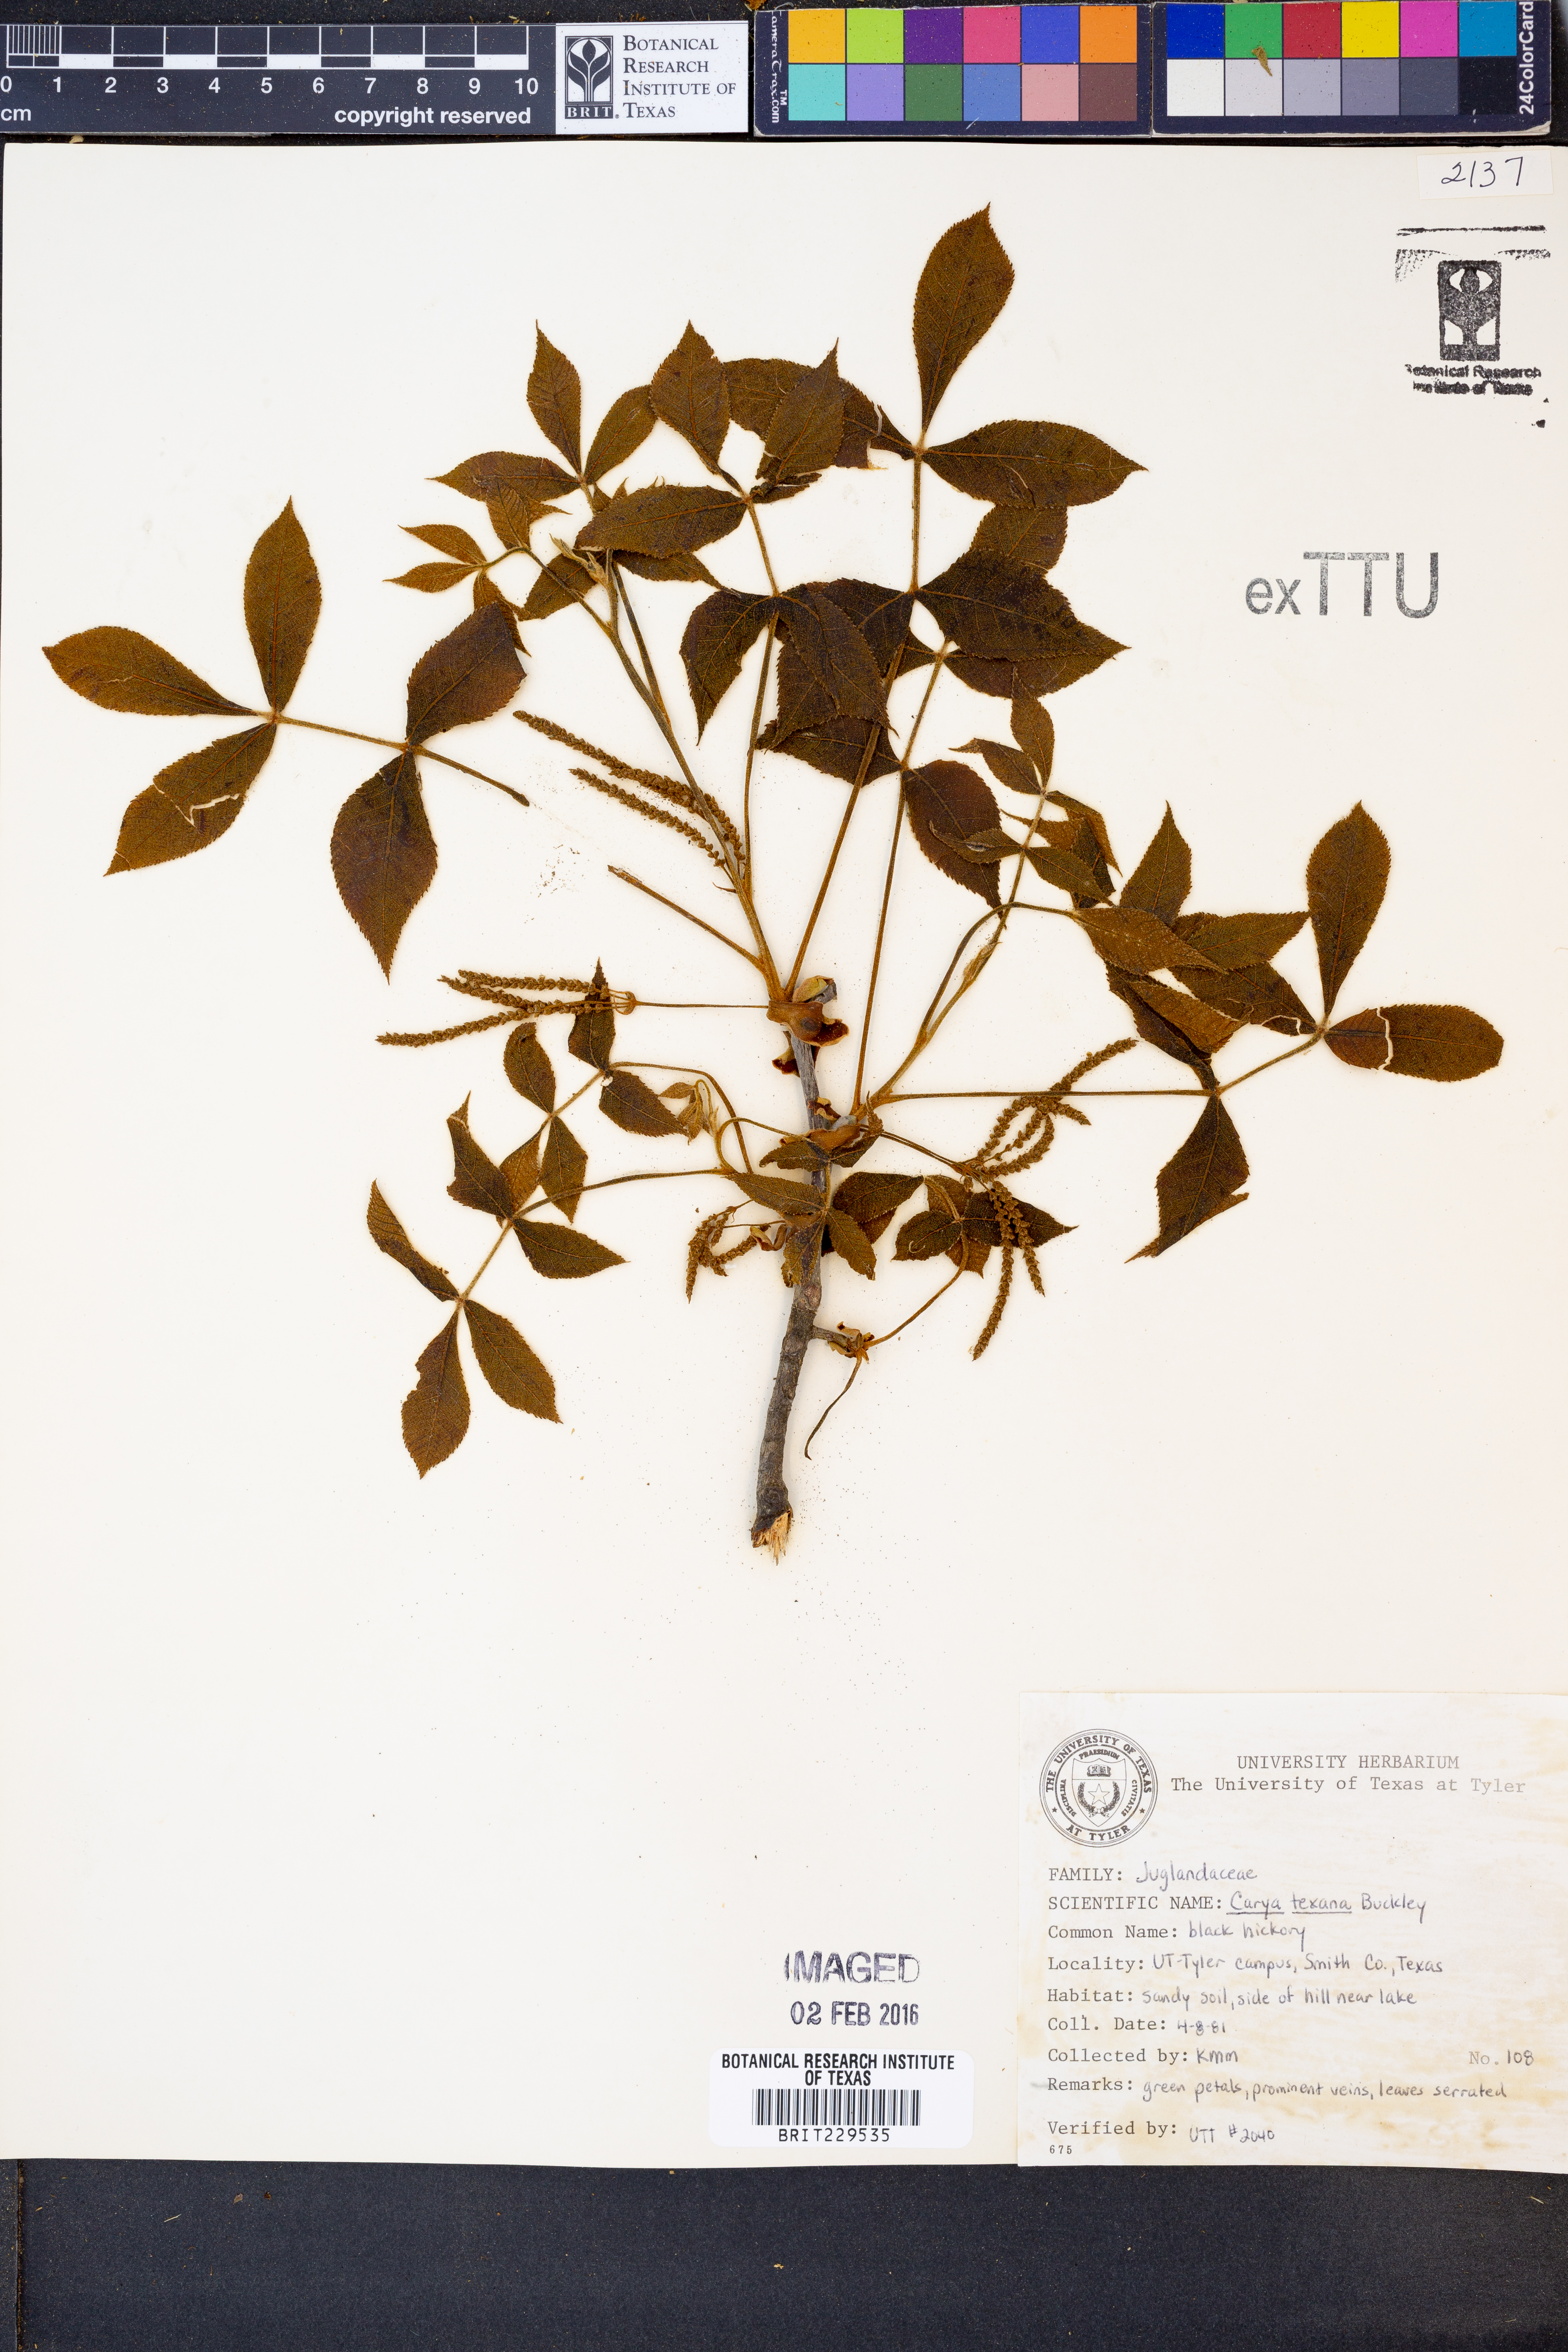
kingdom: Plantae
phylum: Tracheophyta
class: Magnoliopsida
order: Fagales
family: Juglandaceae
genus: Carya
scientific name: Carya texana
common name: Black hickory
